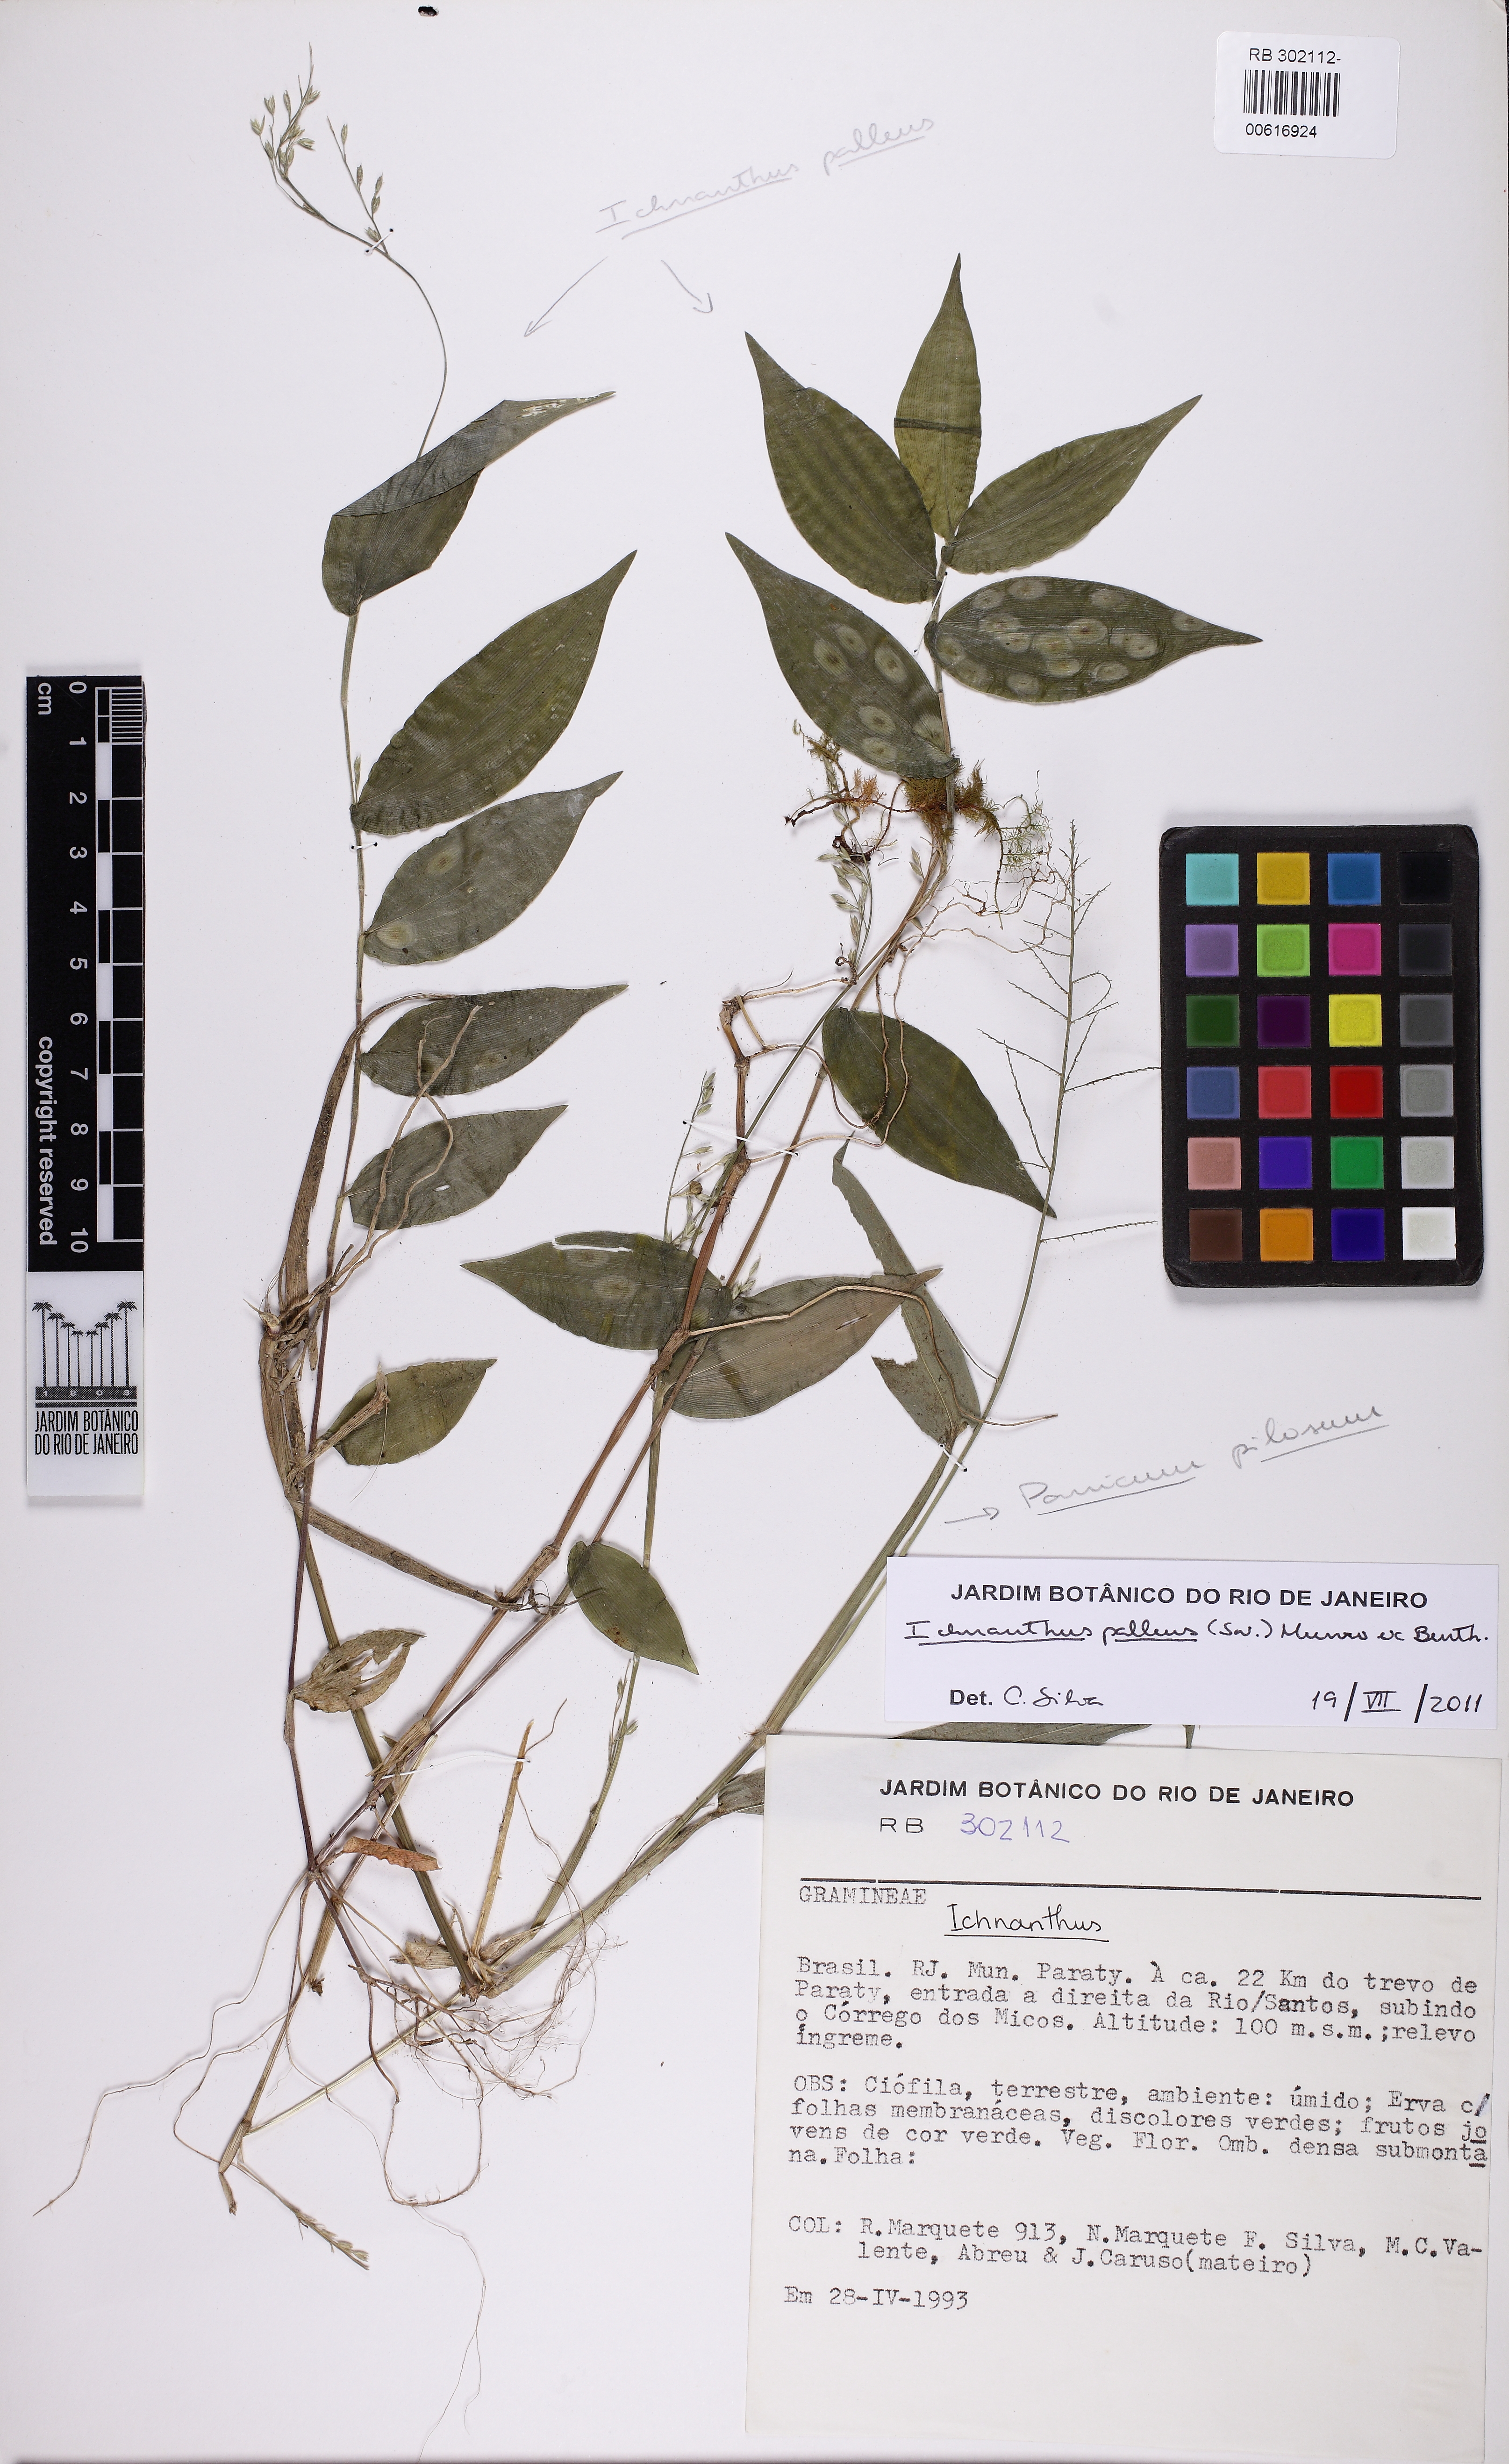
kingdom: Plantae
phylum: Tracheophyta
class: Liliopsida
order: Poales
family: Poaceae
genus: Ichnanthus
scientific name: Ichnanthus pallens
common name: Water grass
